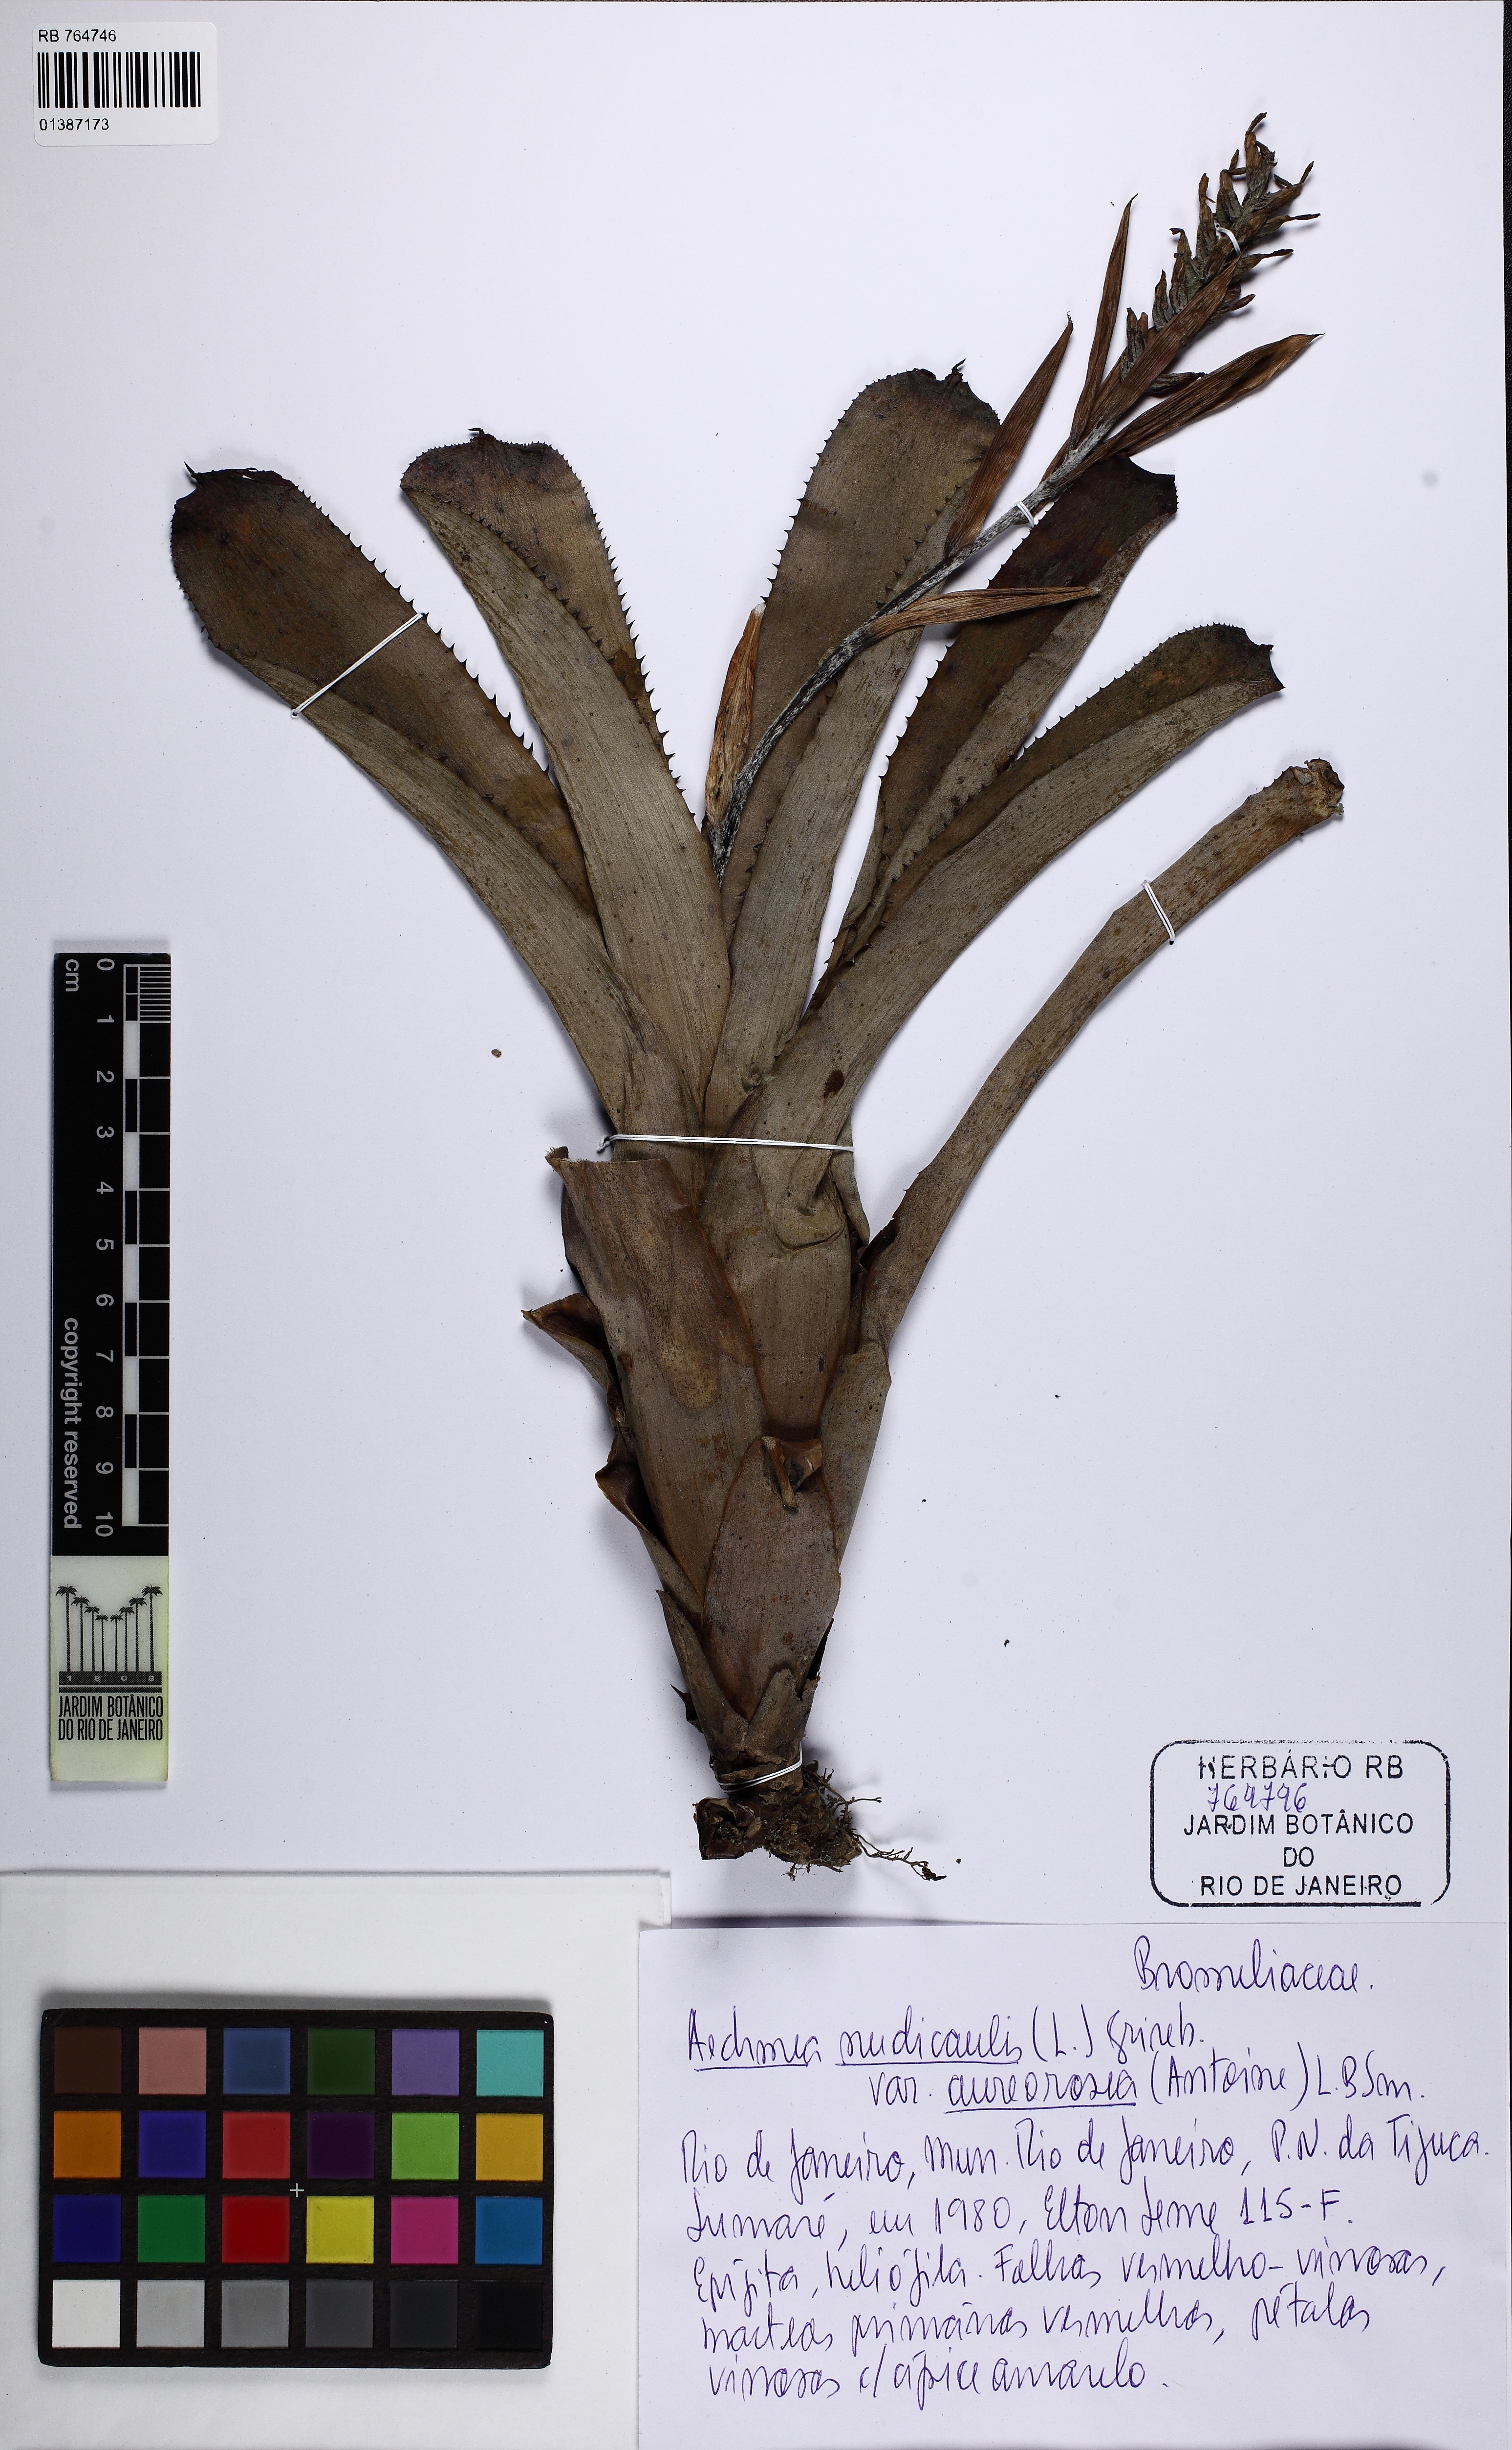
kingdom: Plantae
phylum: Tracheophyta
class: Liliopsida
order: Poales
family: Bromeliaceae
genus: Aechmea
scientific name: Aechmea nudicaulis
